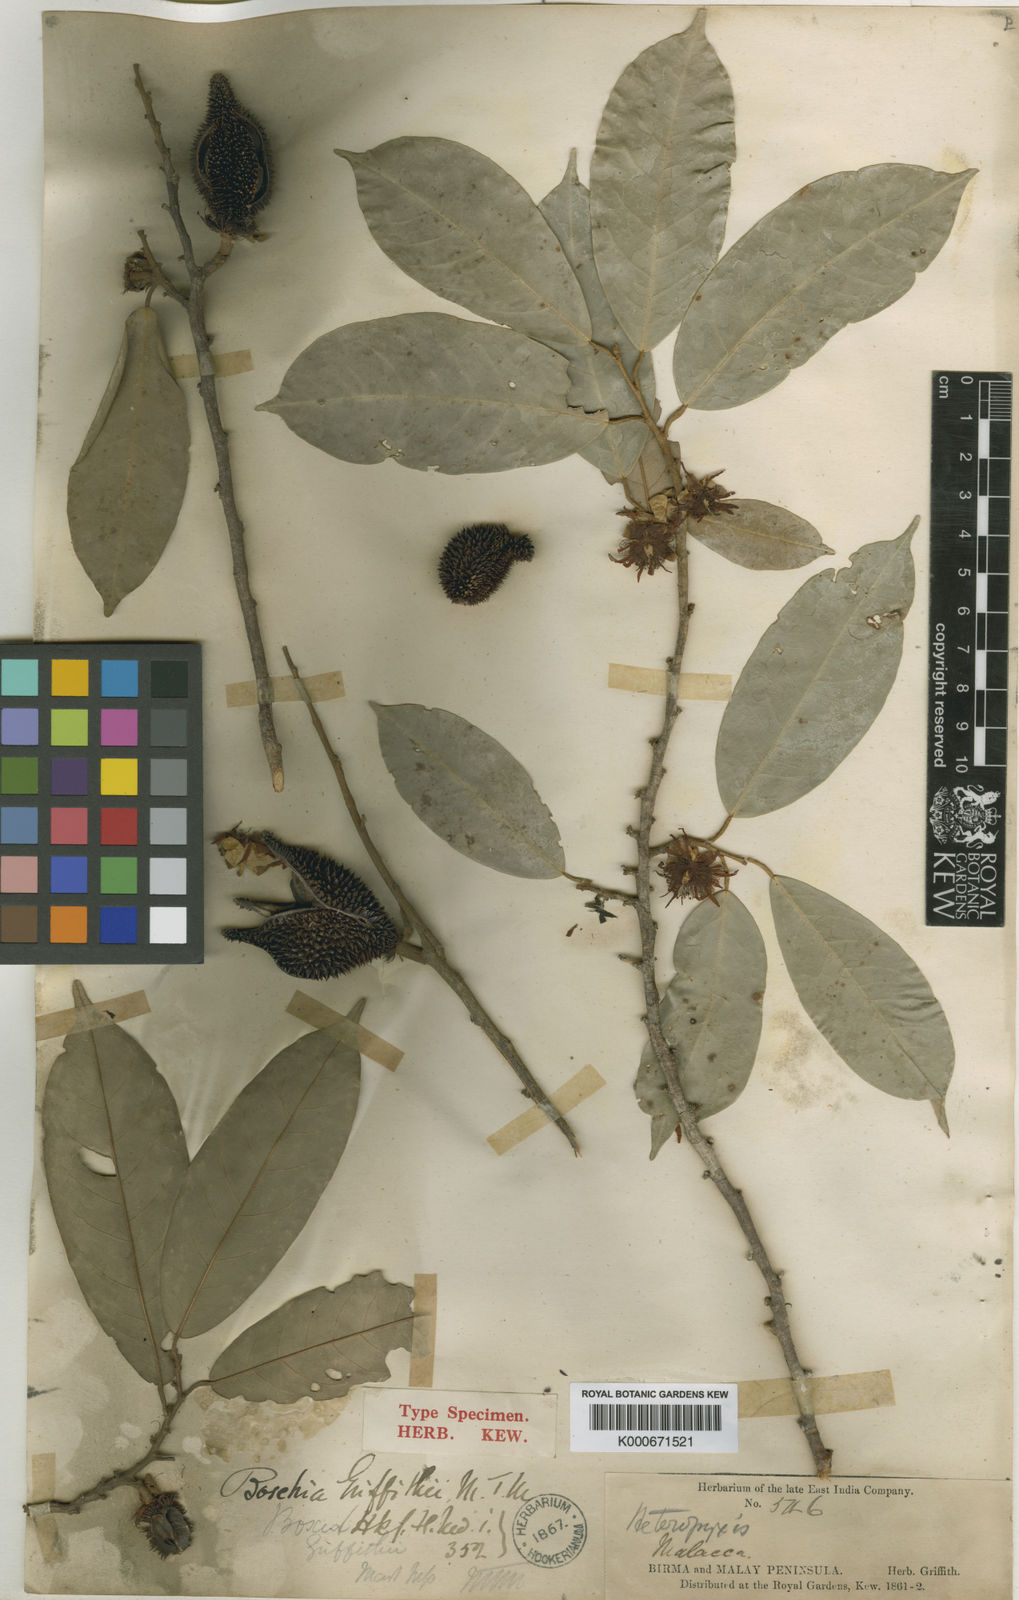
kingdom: Plantae
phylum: Tracheophyta
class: Magnoliopsida
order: Malvales
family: Malvaceae
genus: Boschia
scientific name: Boschia griffithii
